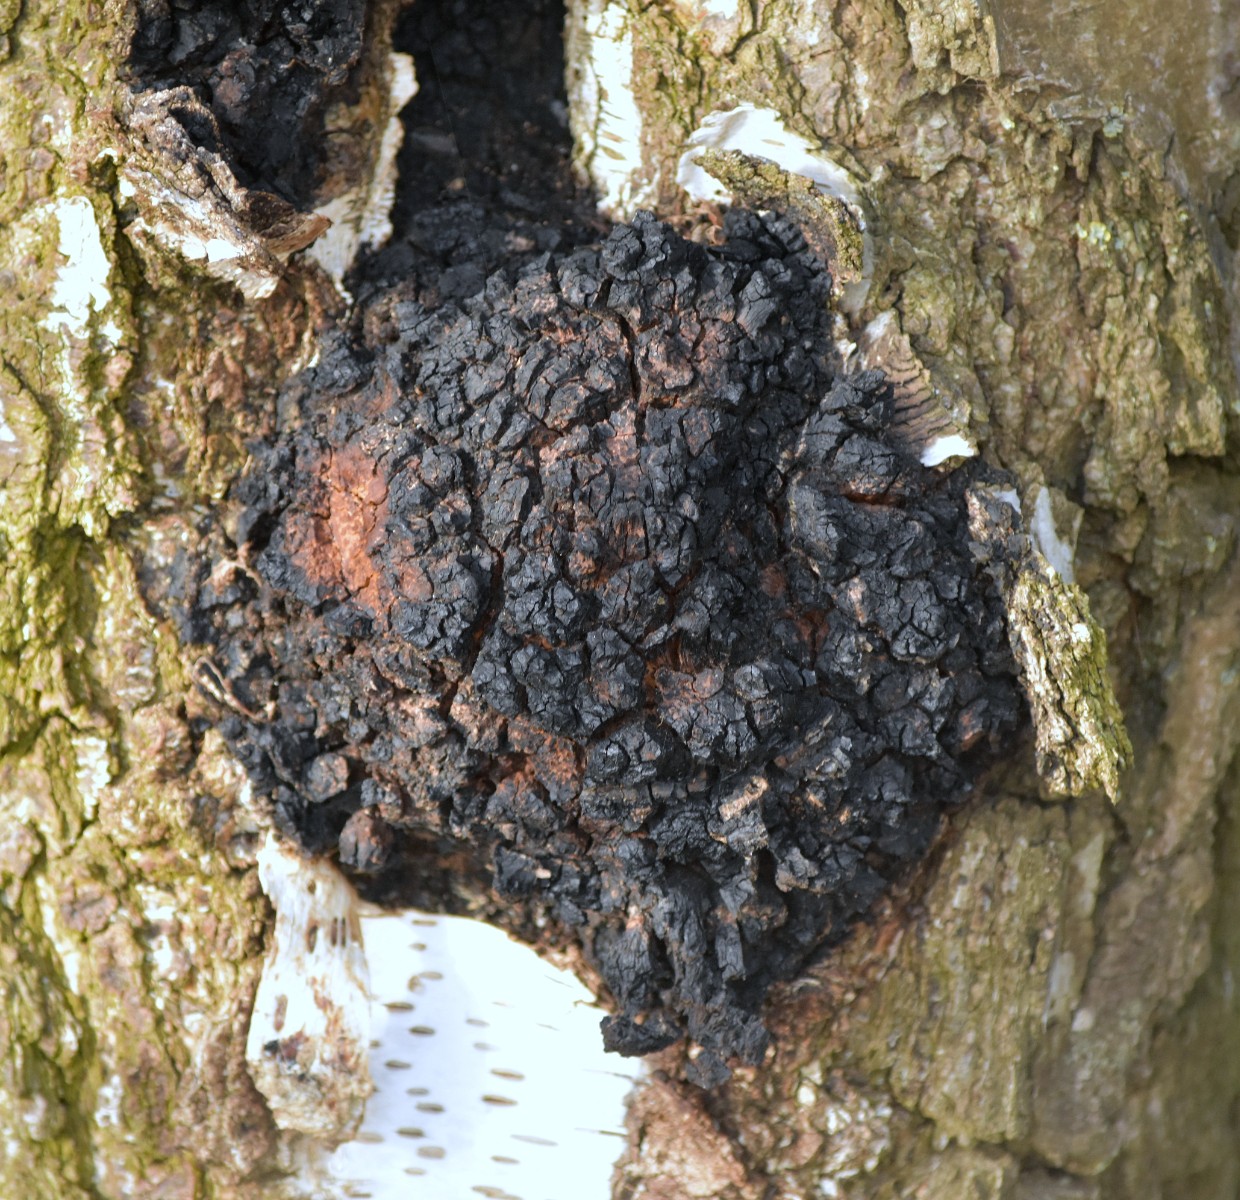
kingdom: Fungi
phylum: Basidiomycota
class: Agaricomycetes
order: Hymenochaetales
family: Hymenochaetaceae
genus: Inonotus
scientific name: Inonotus obliquus
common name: birke-spejlporesvamp
